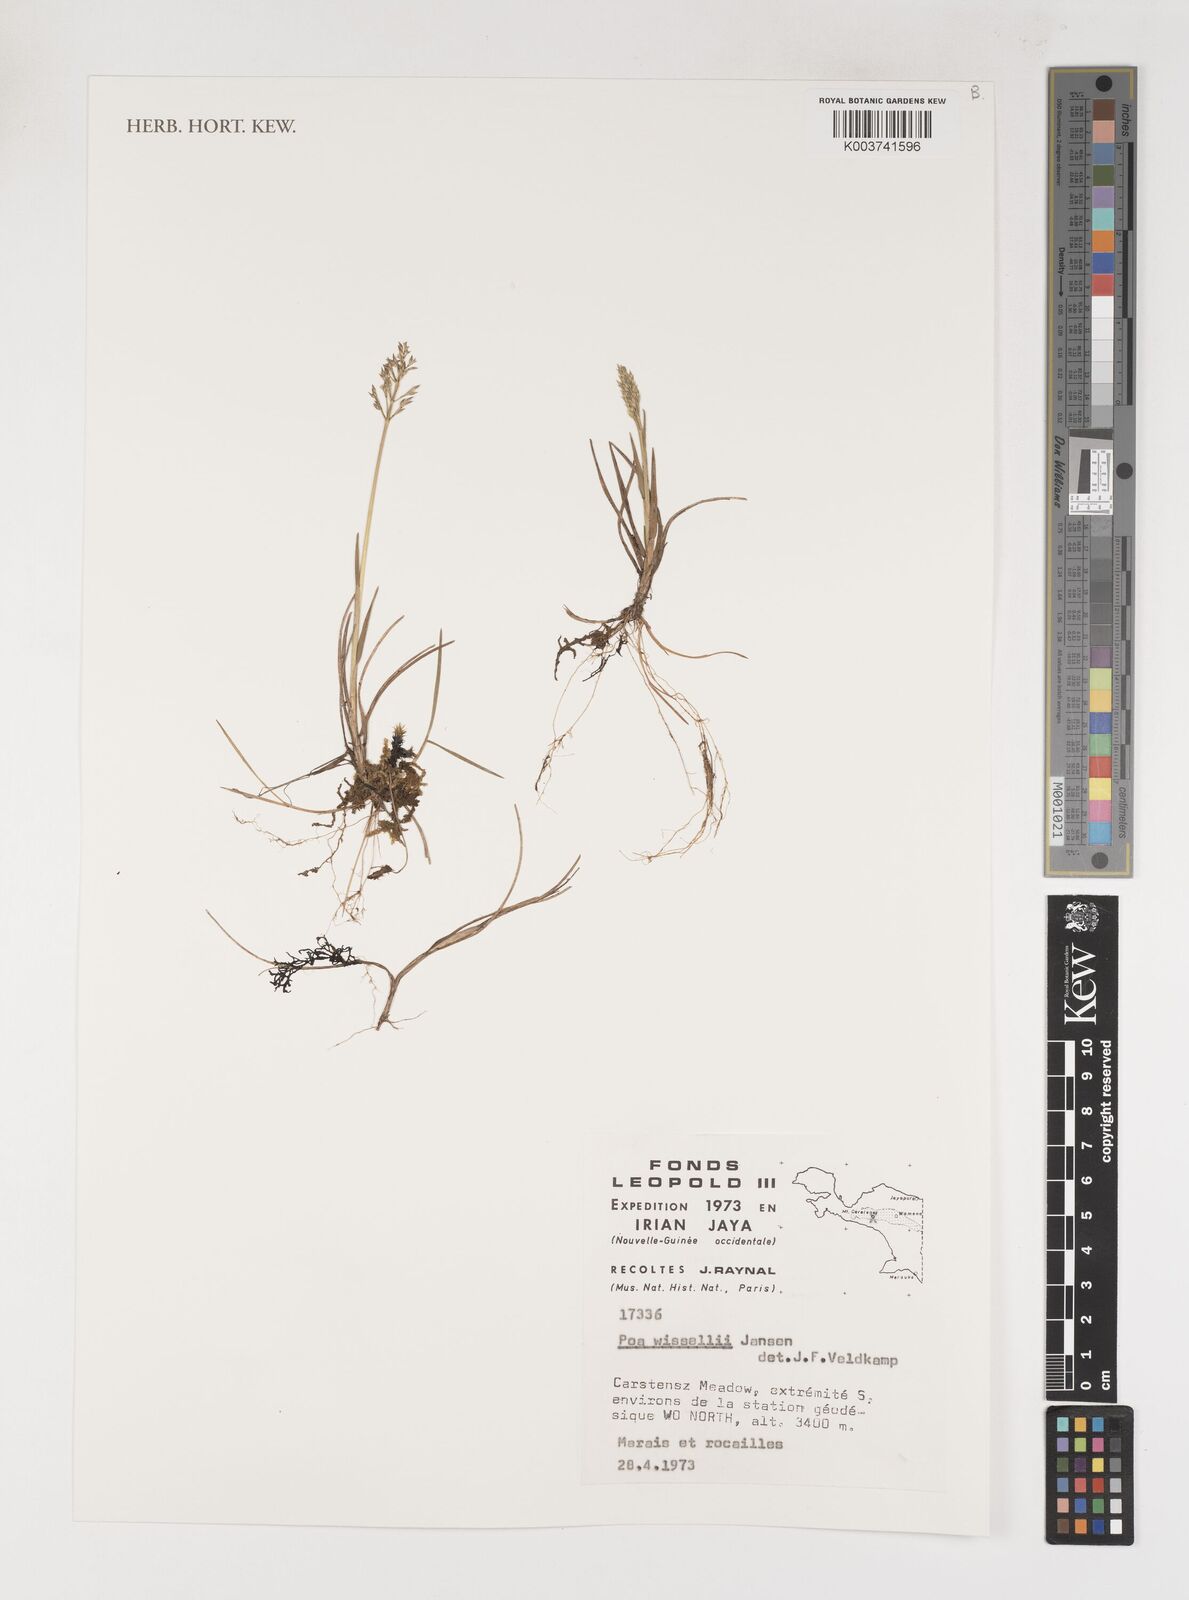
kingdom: Plantae
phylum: Tracheophyta
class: Liliopsida
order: Poales
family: Poaceae
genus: Poa
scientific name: Poa wisselii
